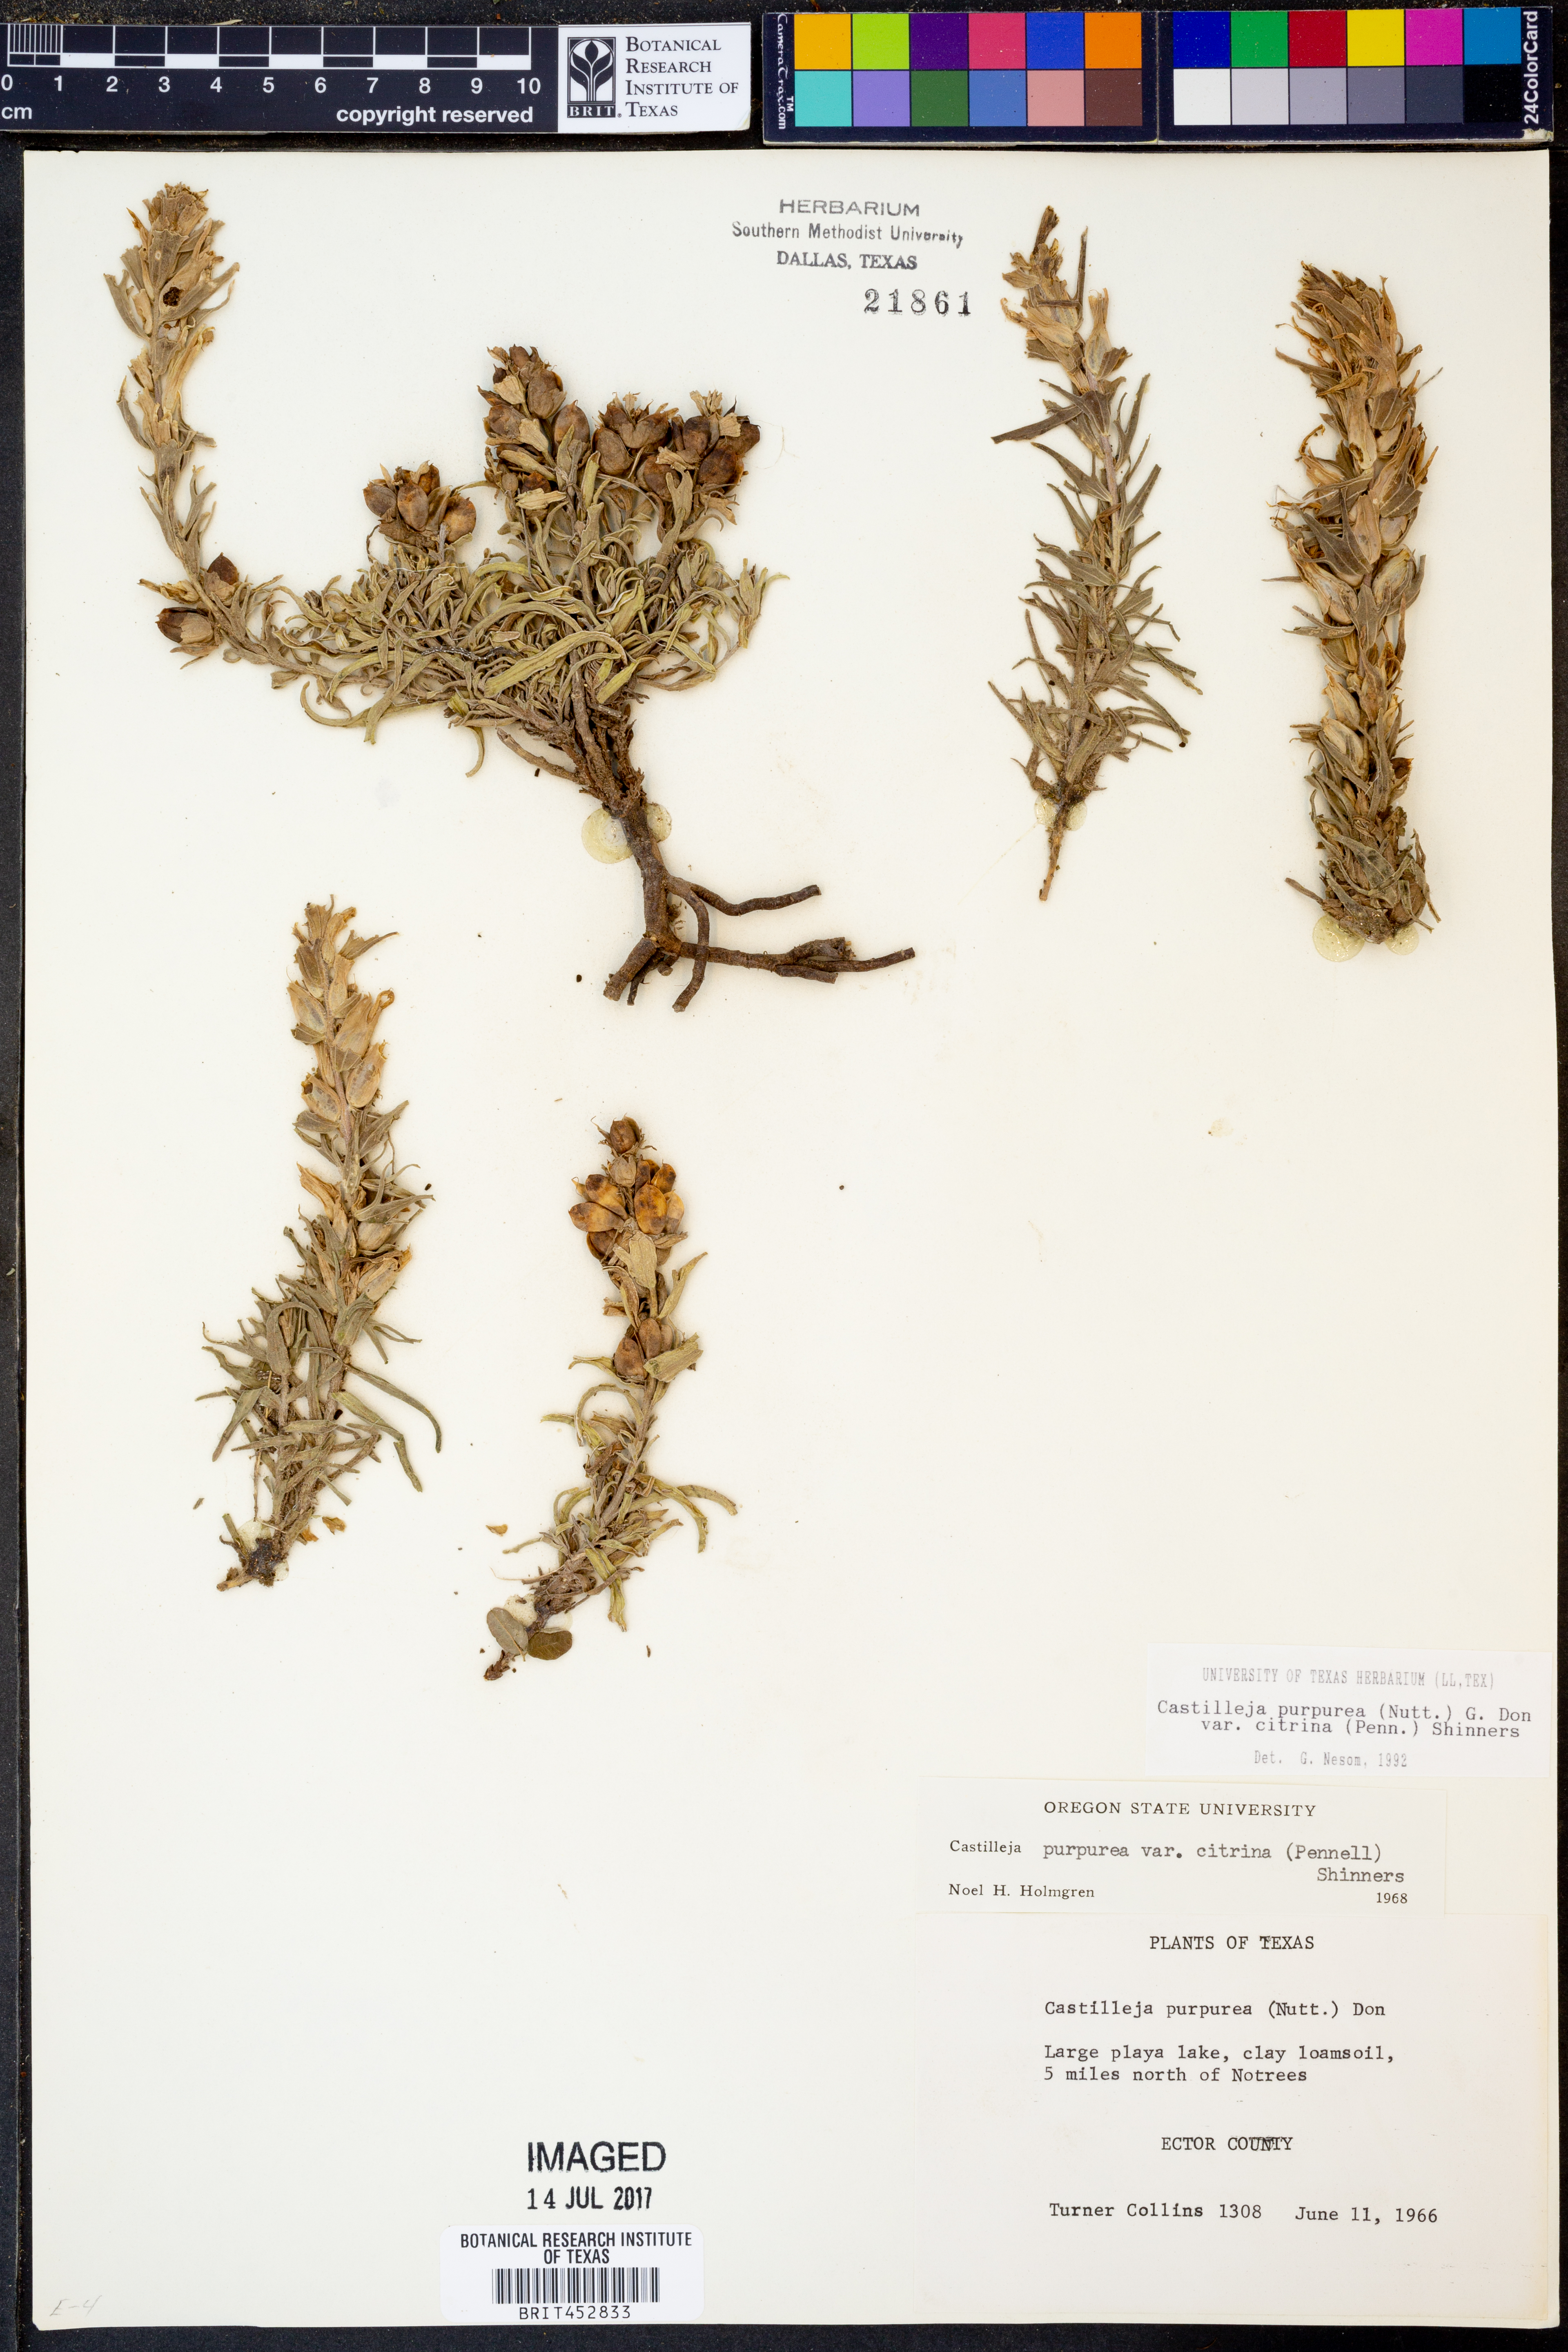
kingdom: Plantae
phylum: Tracheophyta
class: Magnoliopsida
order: Lamiales
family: Orobanchaceae
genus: Castilleja
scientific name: Castilleja purpurea
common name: Plains paintbrush
